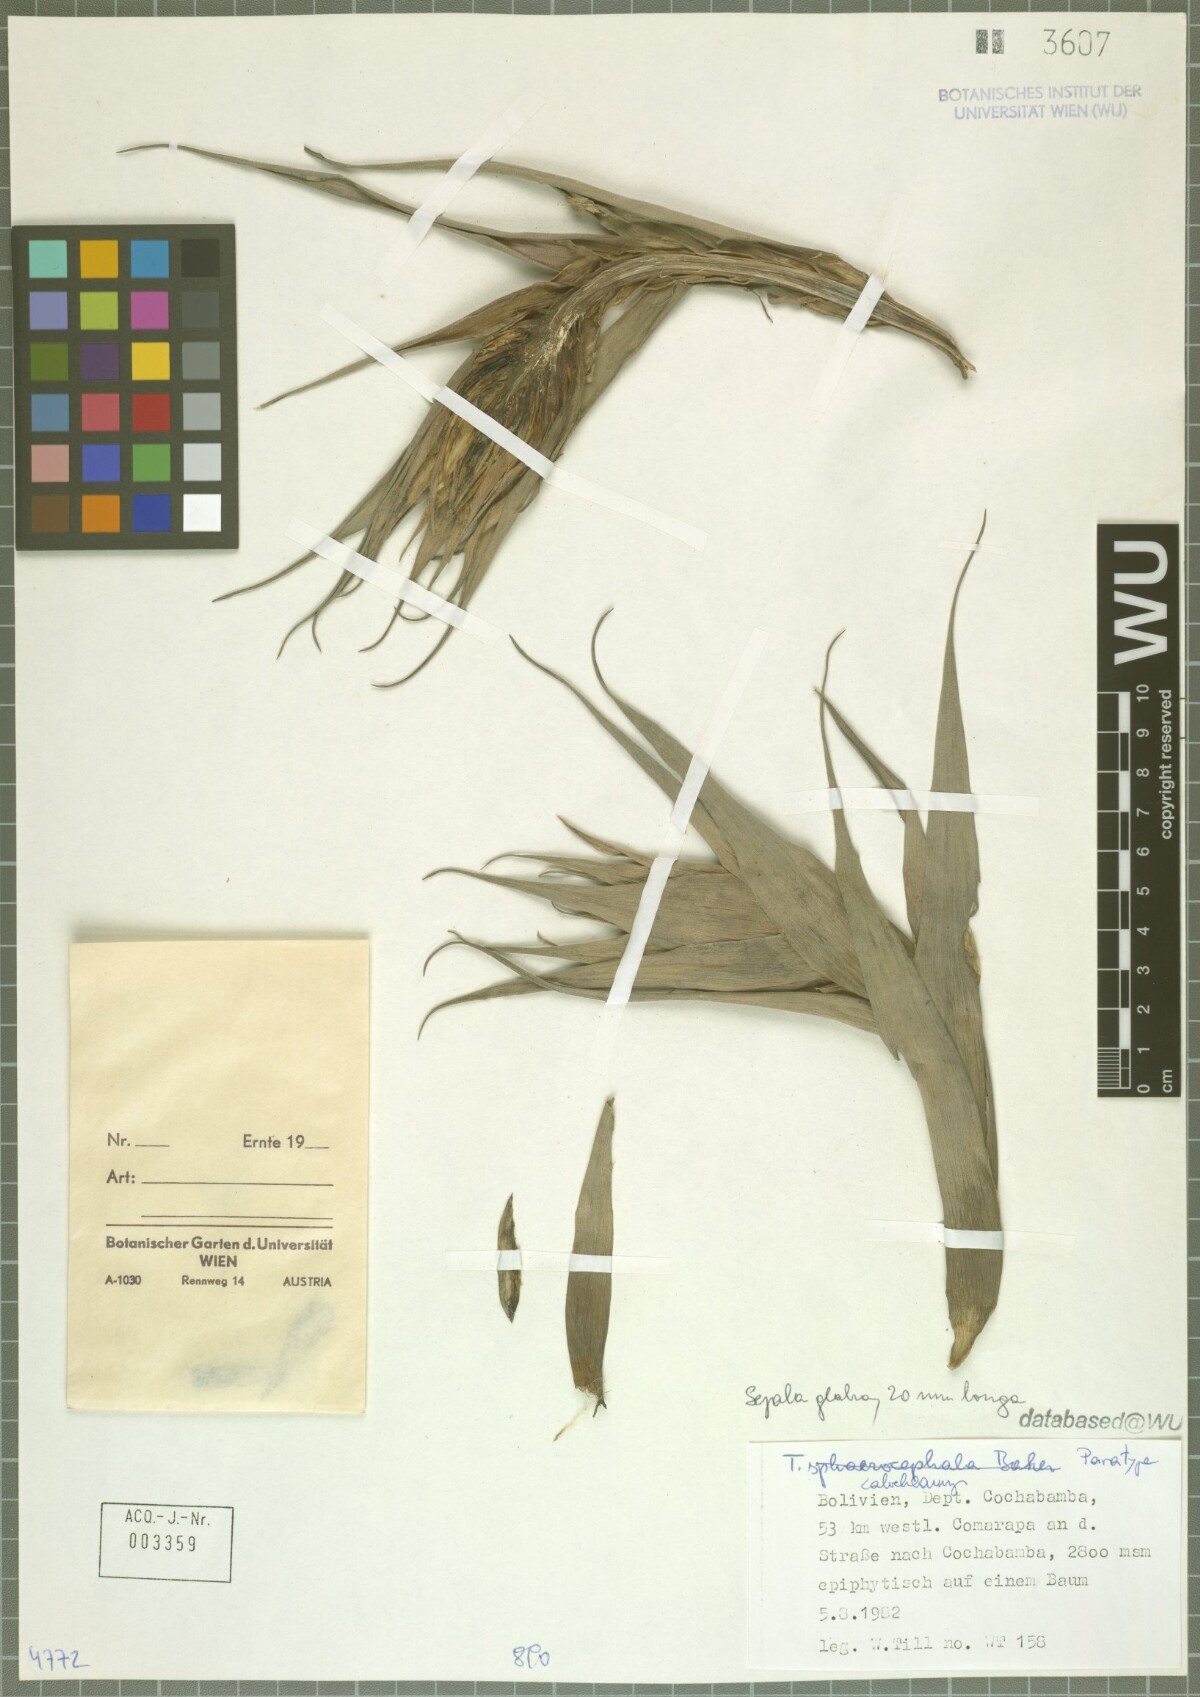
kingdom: Plantae
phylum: Tracheophyta
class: Liliopsida
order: Poales
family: Bromeliaceae
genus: Tillandsia
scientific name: Tillandsia calochlamys
